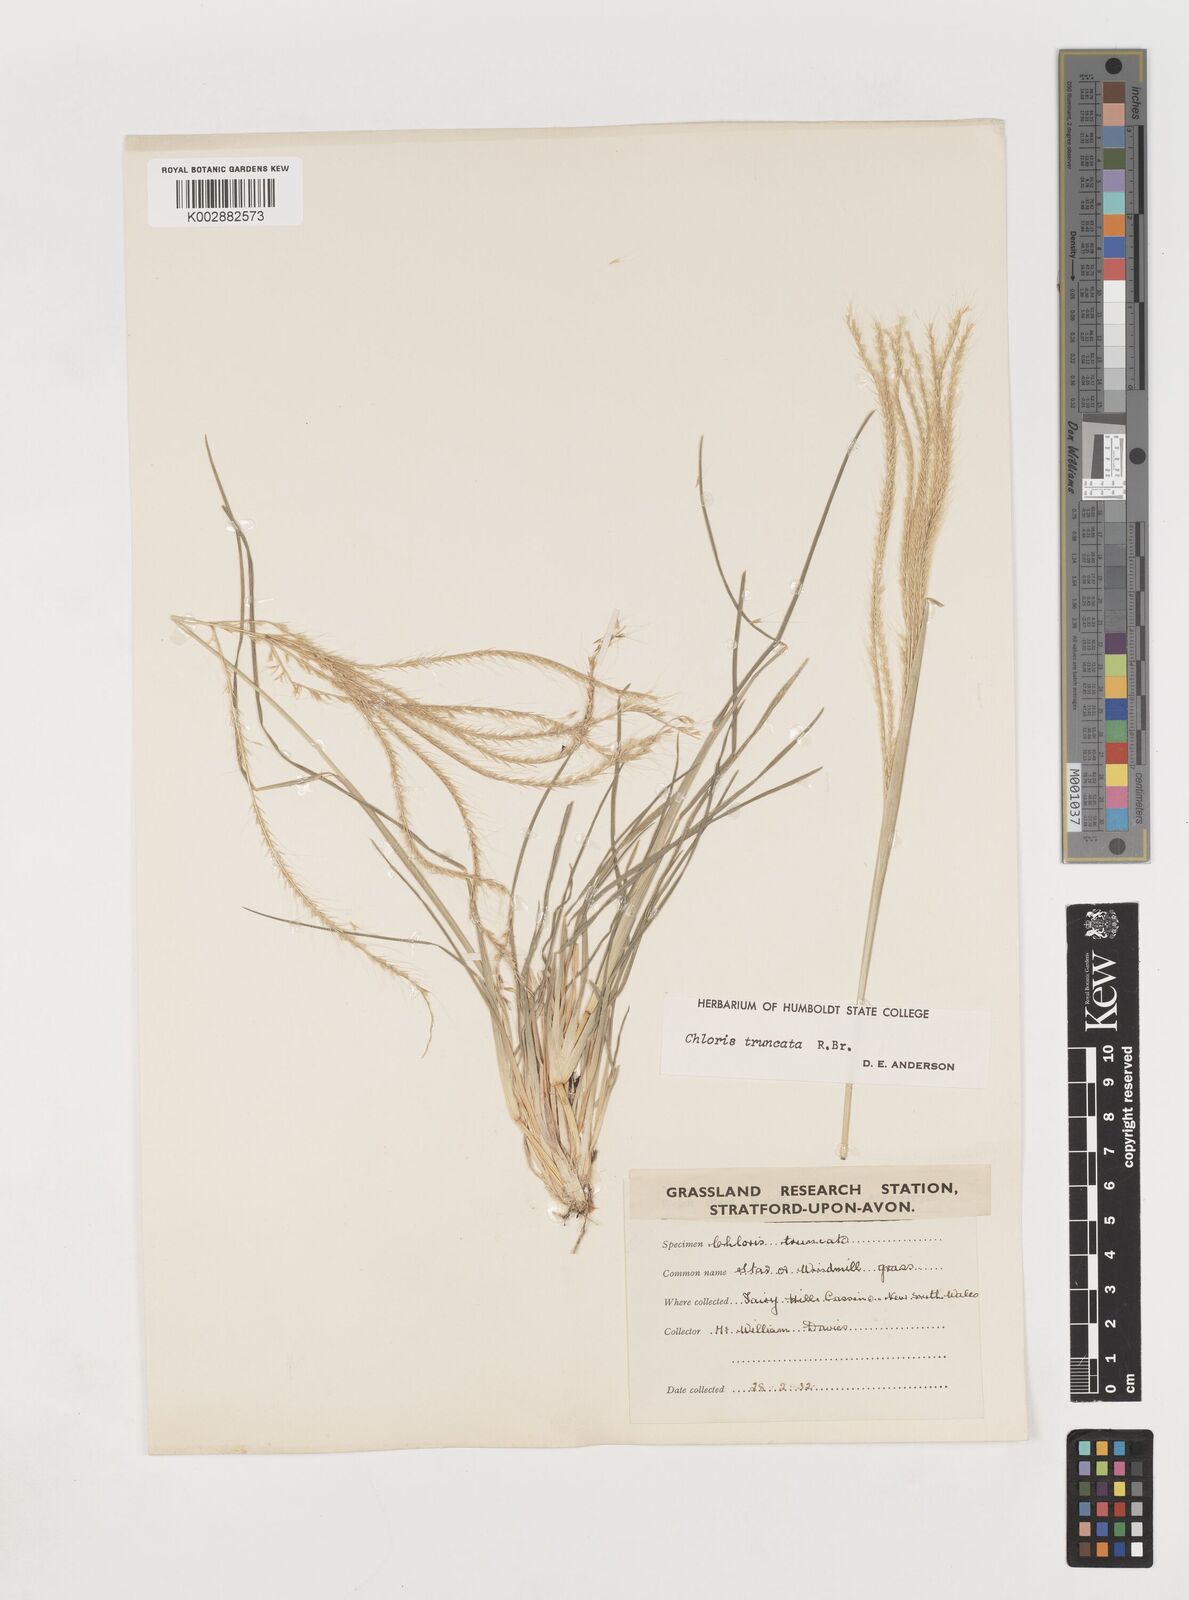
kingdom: Plantae
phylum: Tracheophyta
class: Liliopsida
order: Poales
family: Poaceae
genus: Chloris
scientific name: Chloris truncata
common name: Windmill-grass
